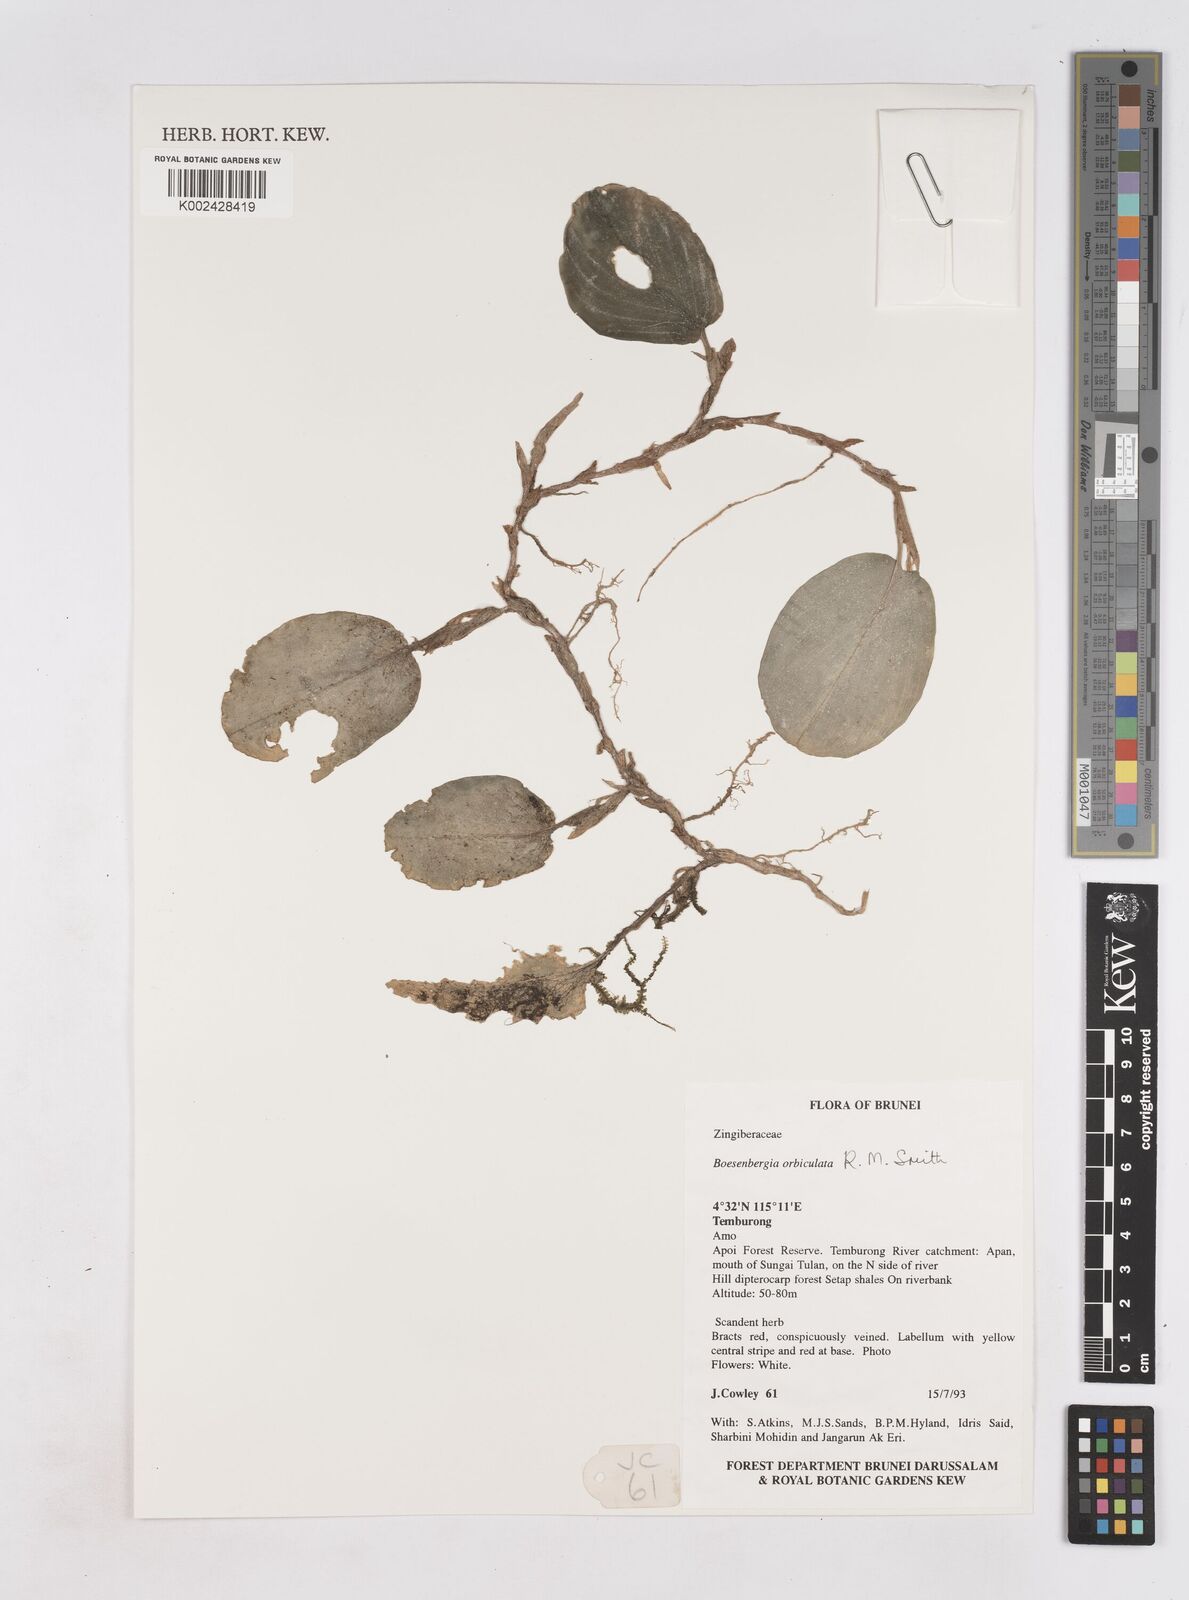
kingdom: Plantae
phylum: Tracheophyta
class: Liliopsida
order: Zingiberales
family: Zingiberaceae
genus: Boesenbergia
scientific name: Boesenbergia orbiculata
